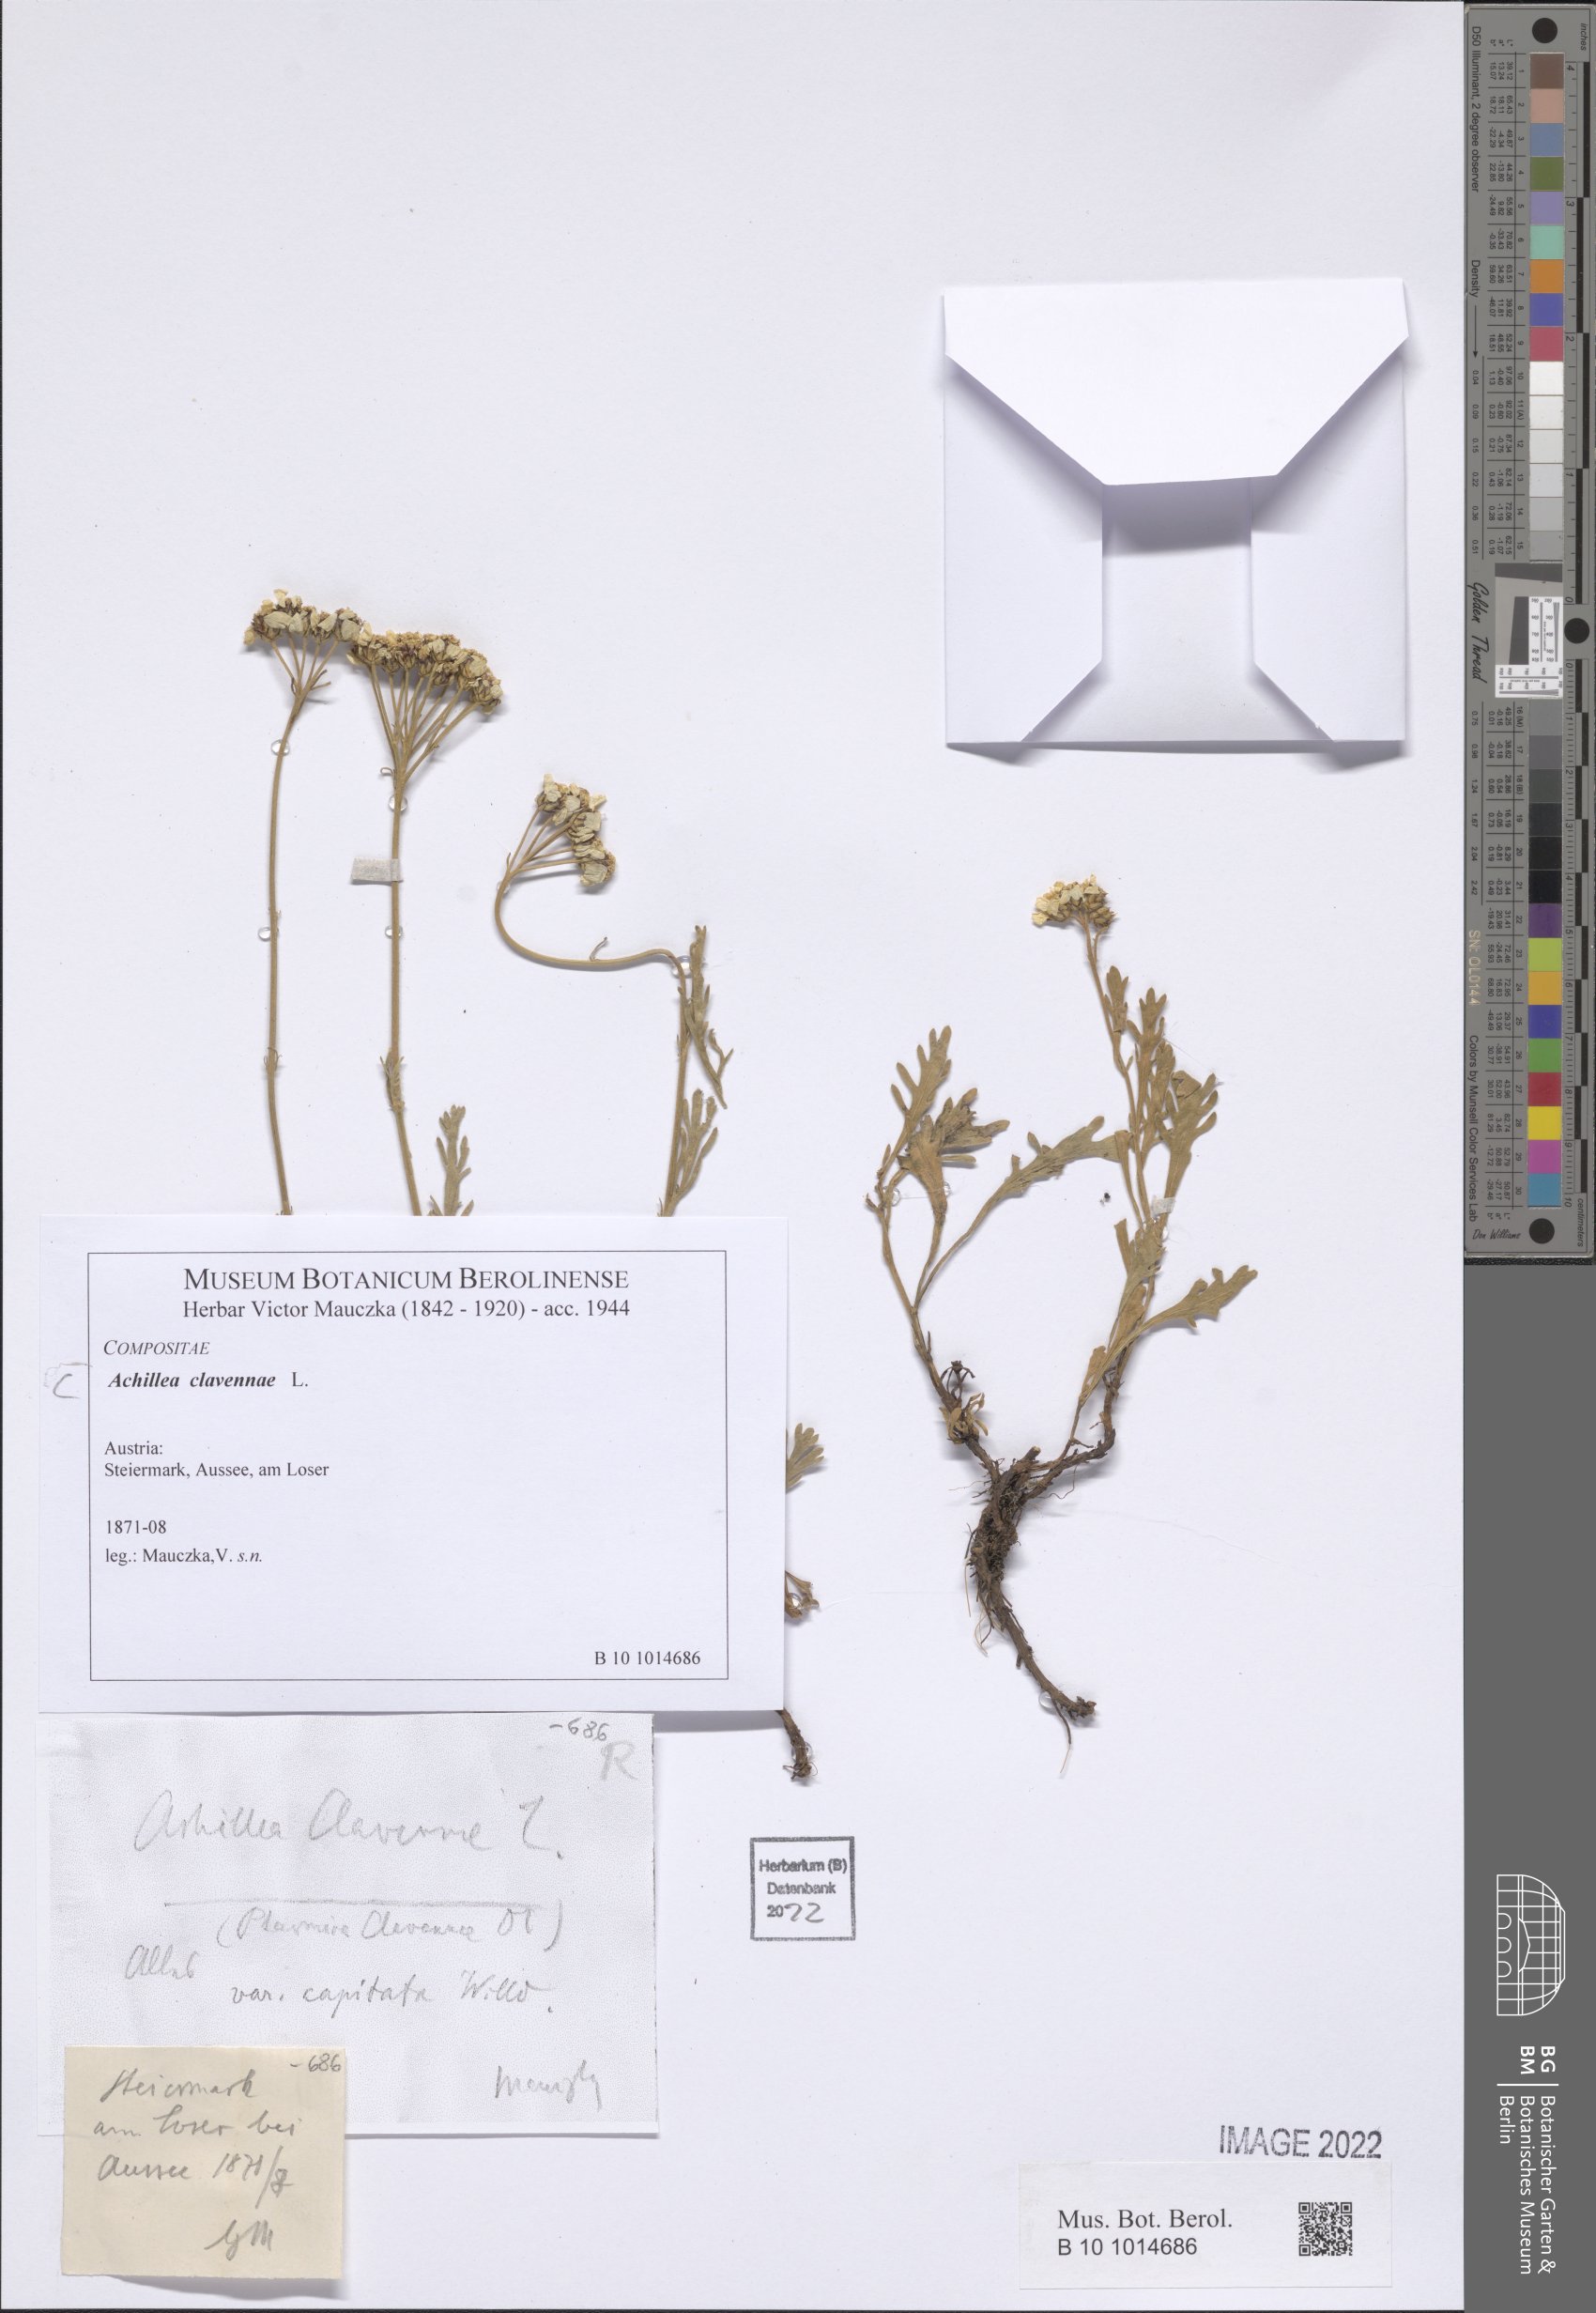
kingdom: Plantae
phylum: Tracheophyta
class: Magnoliopsida
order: Asterales
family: Asteraceae
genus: Achillea
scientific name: Achillea clavennae
